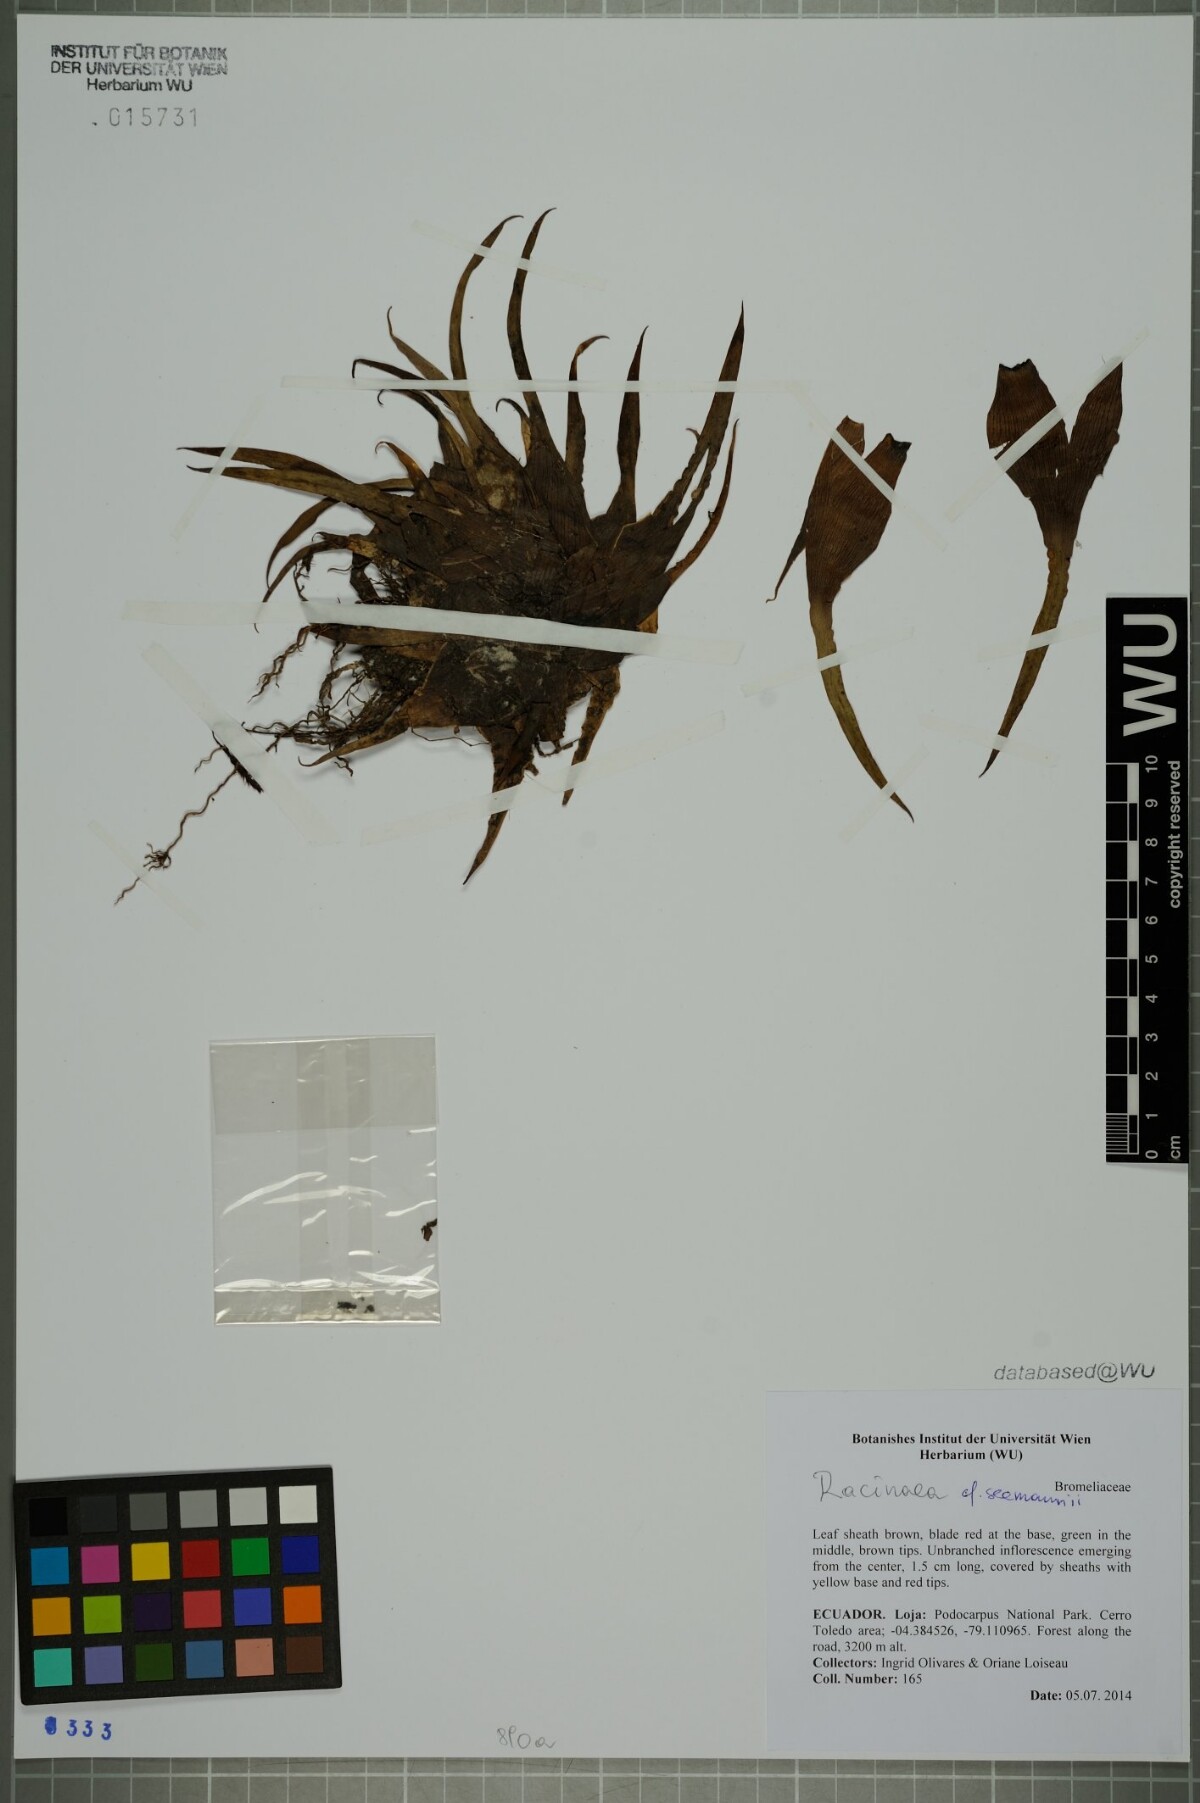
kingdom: Plantae
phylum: Tracheophyta
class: Liliopsida
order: Poales
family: Bromeliaceae
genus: Racinaea
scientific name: Racinaea seemannii
